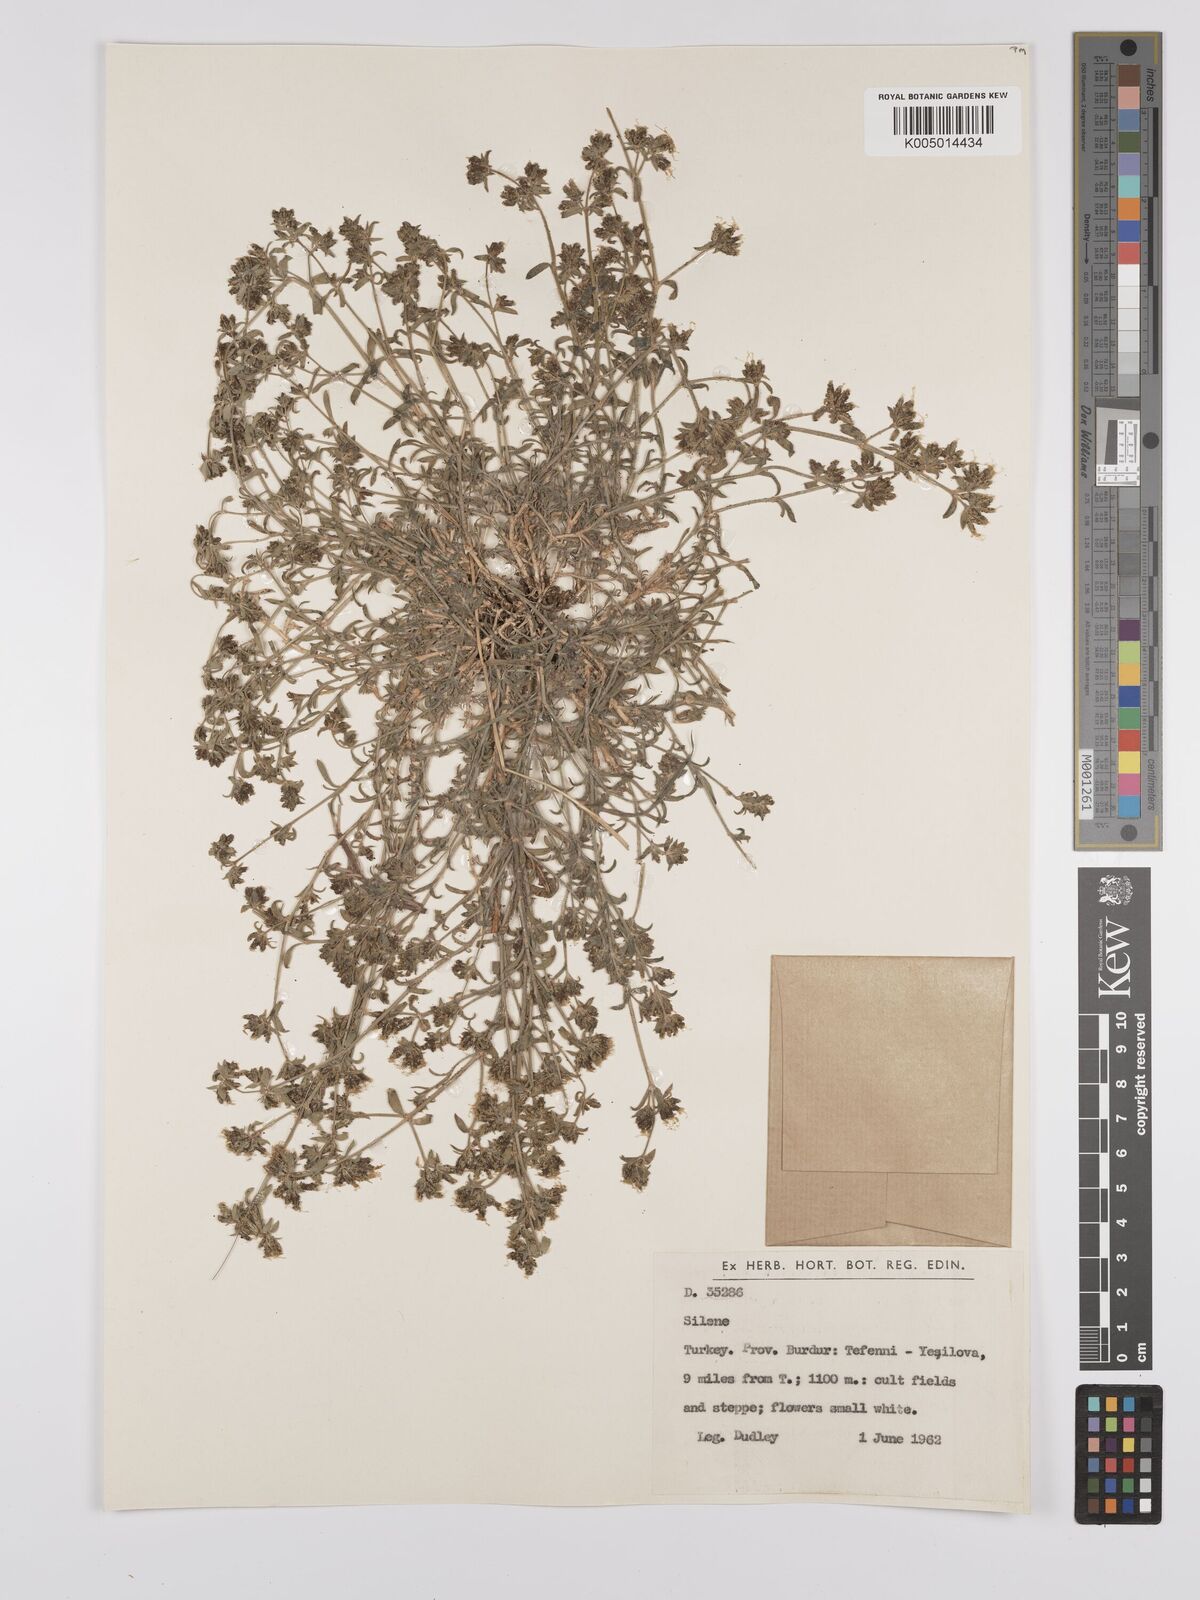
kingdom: Plantae
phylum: Tracheophyta
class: Magnoliopsida
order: Caryophyllales
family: Caryophyllaceae
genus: Silene
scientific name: Silene
